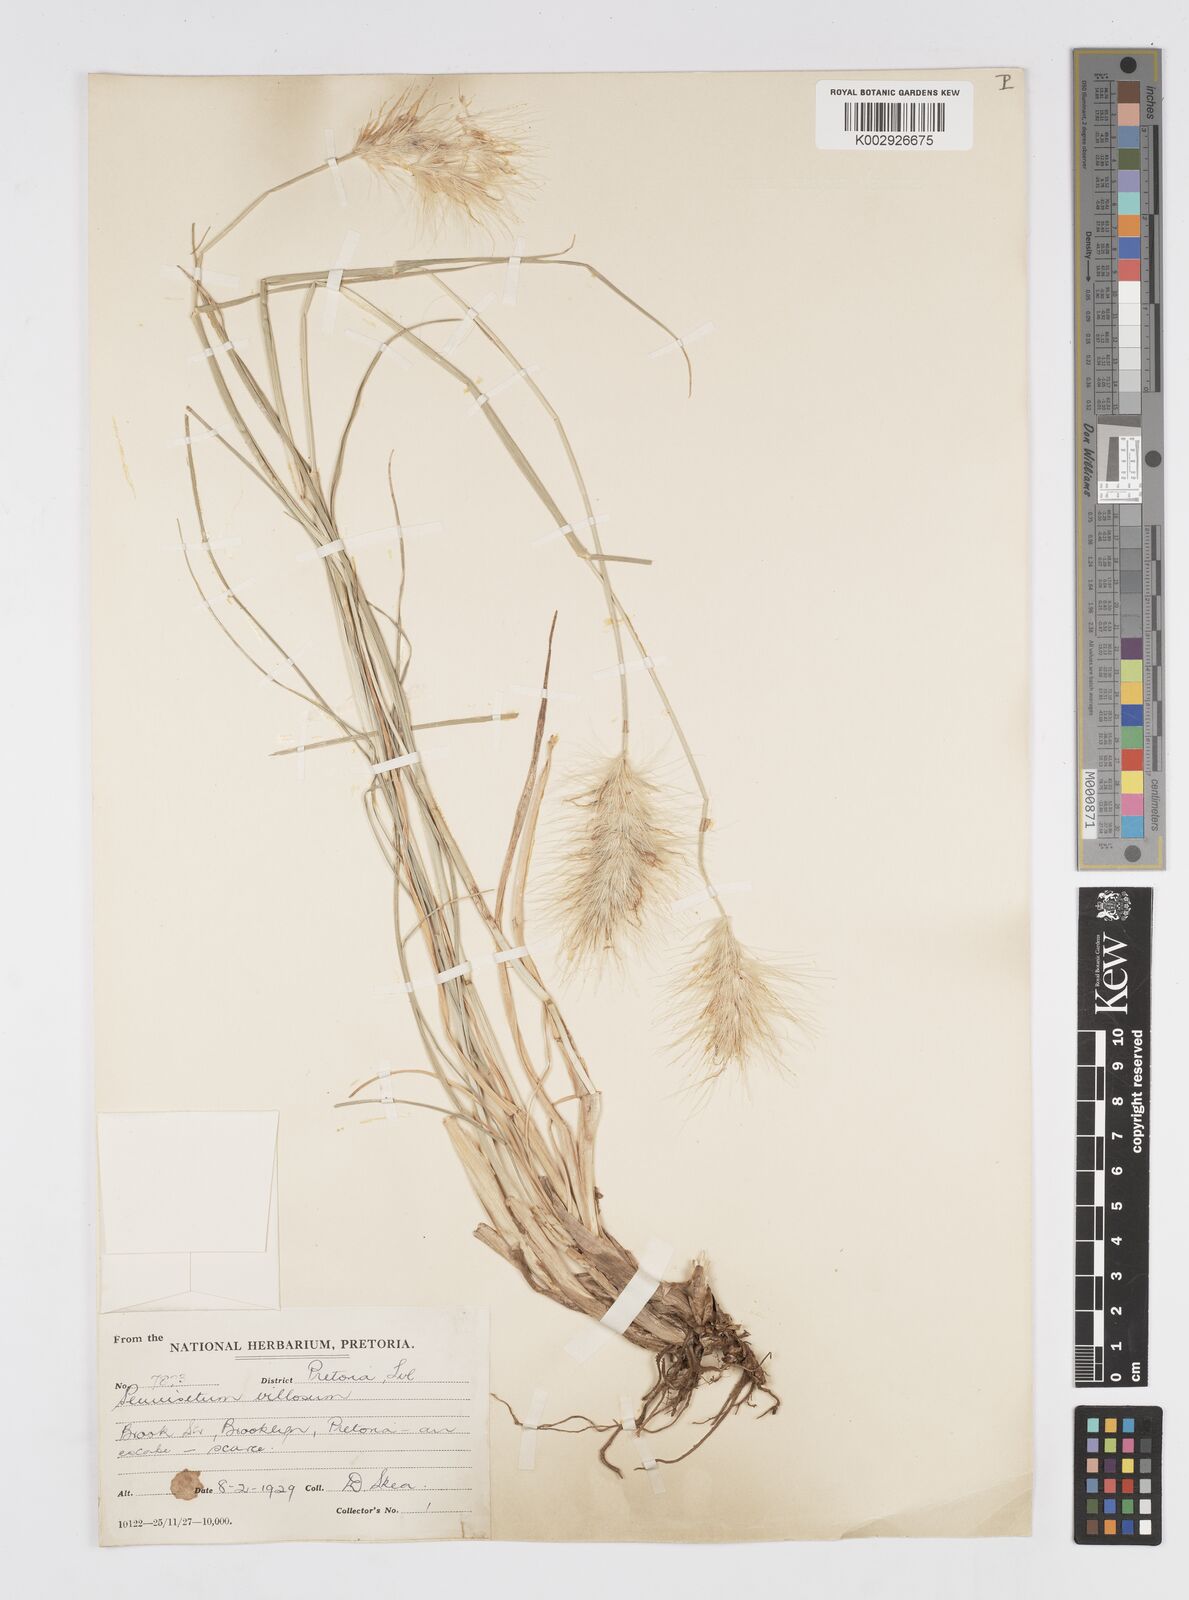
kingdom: Plantae
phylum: Tracheophyta
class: Liliopsida
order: Poales
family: Poaceae
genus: Cenchrus
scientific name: Cenchrus longisetus
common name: Feathertop
